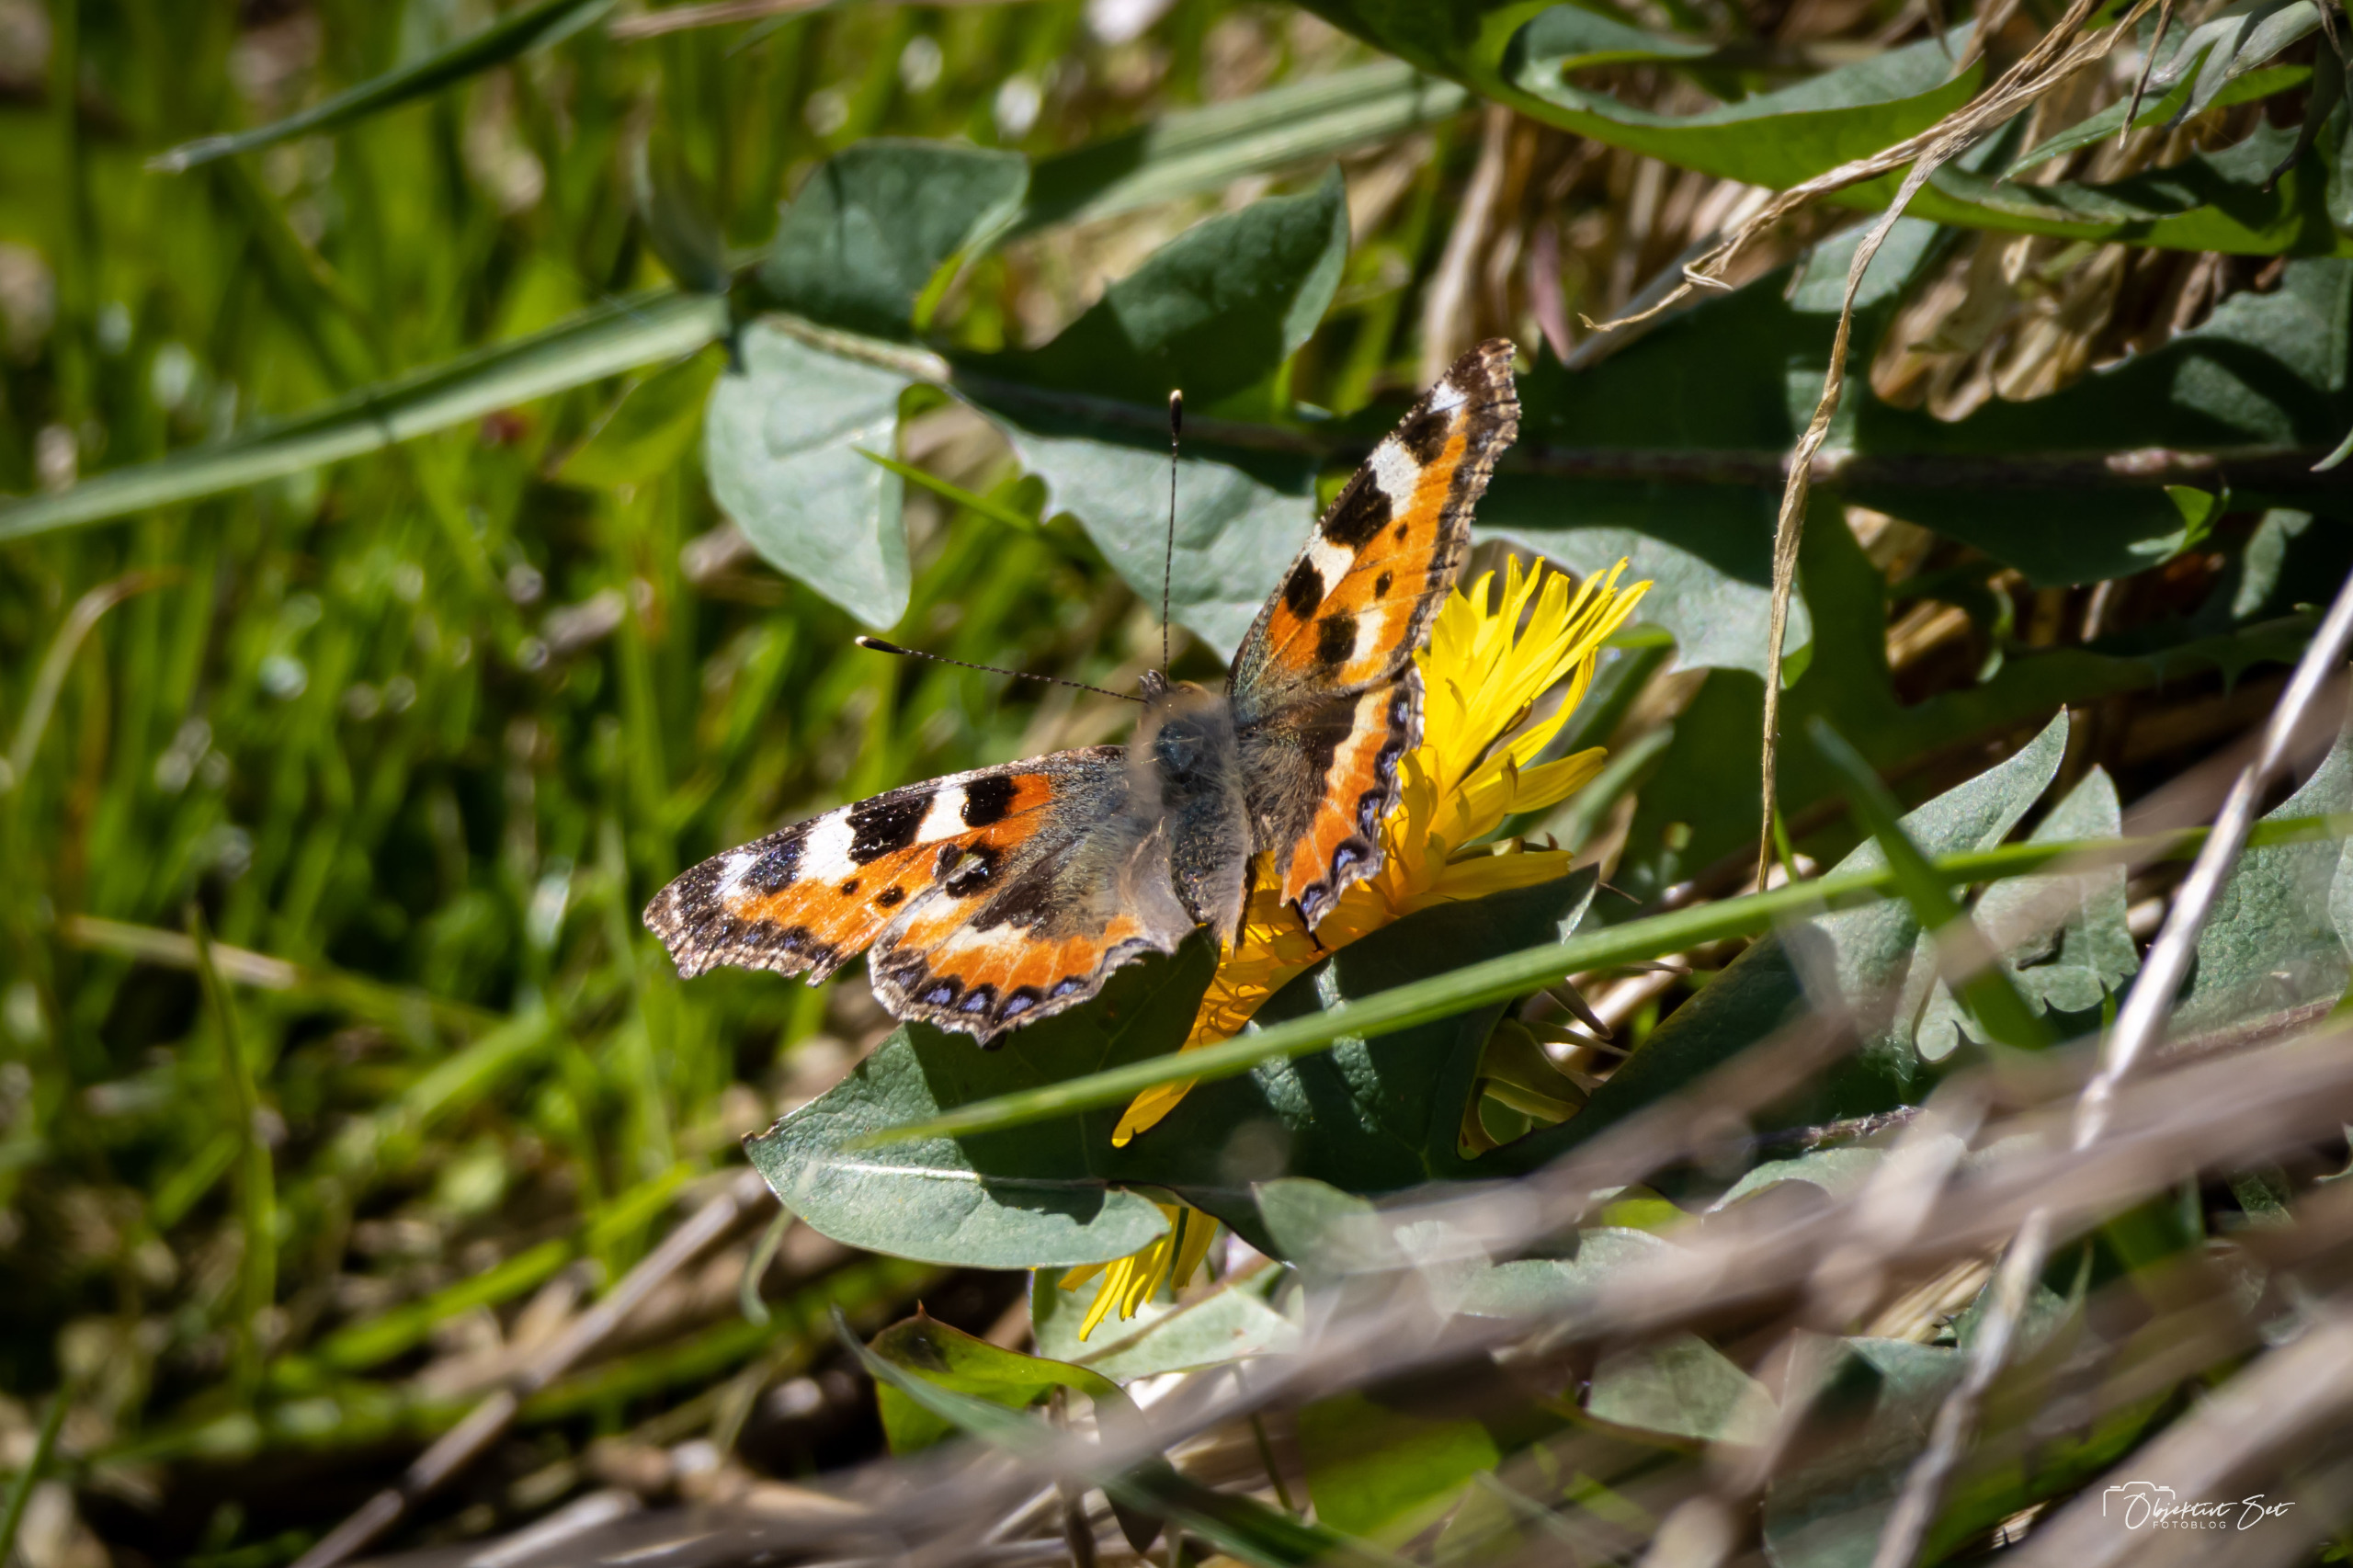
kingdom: Animalia
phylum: Arthropoda
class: Insecta
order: Lepidoptera
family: Nymphalidae
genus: Aglais
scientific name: Aglais urticae
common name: Nældens takvinge
